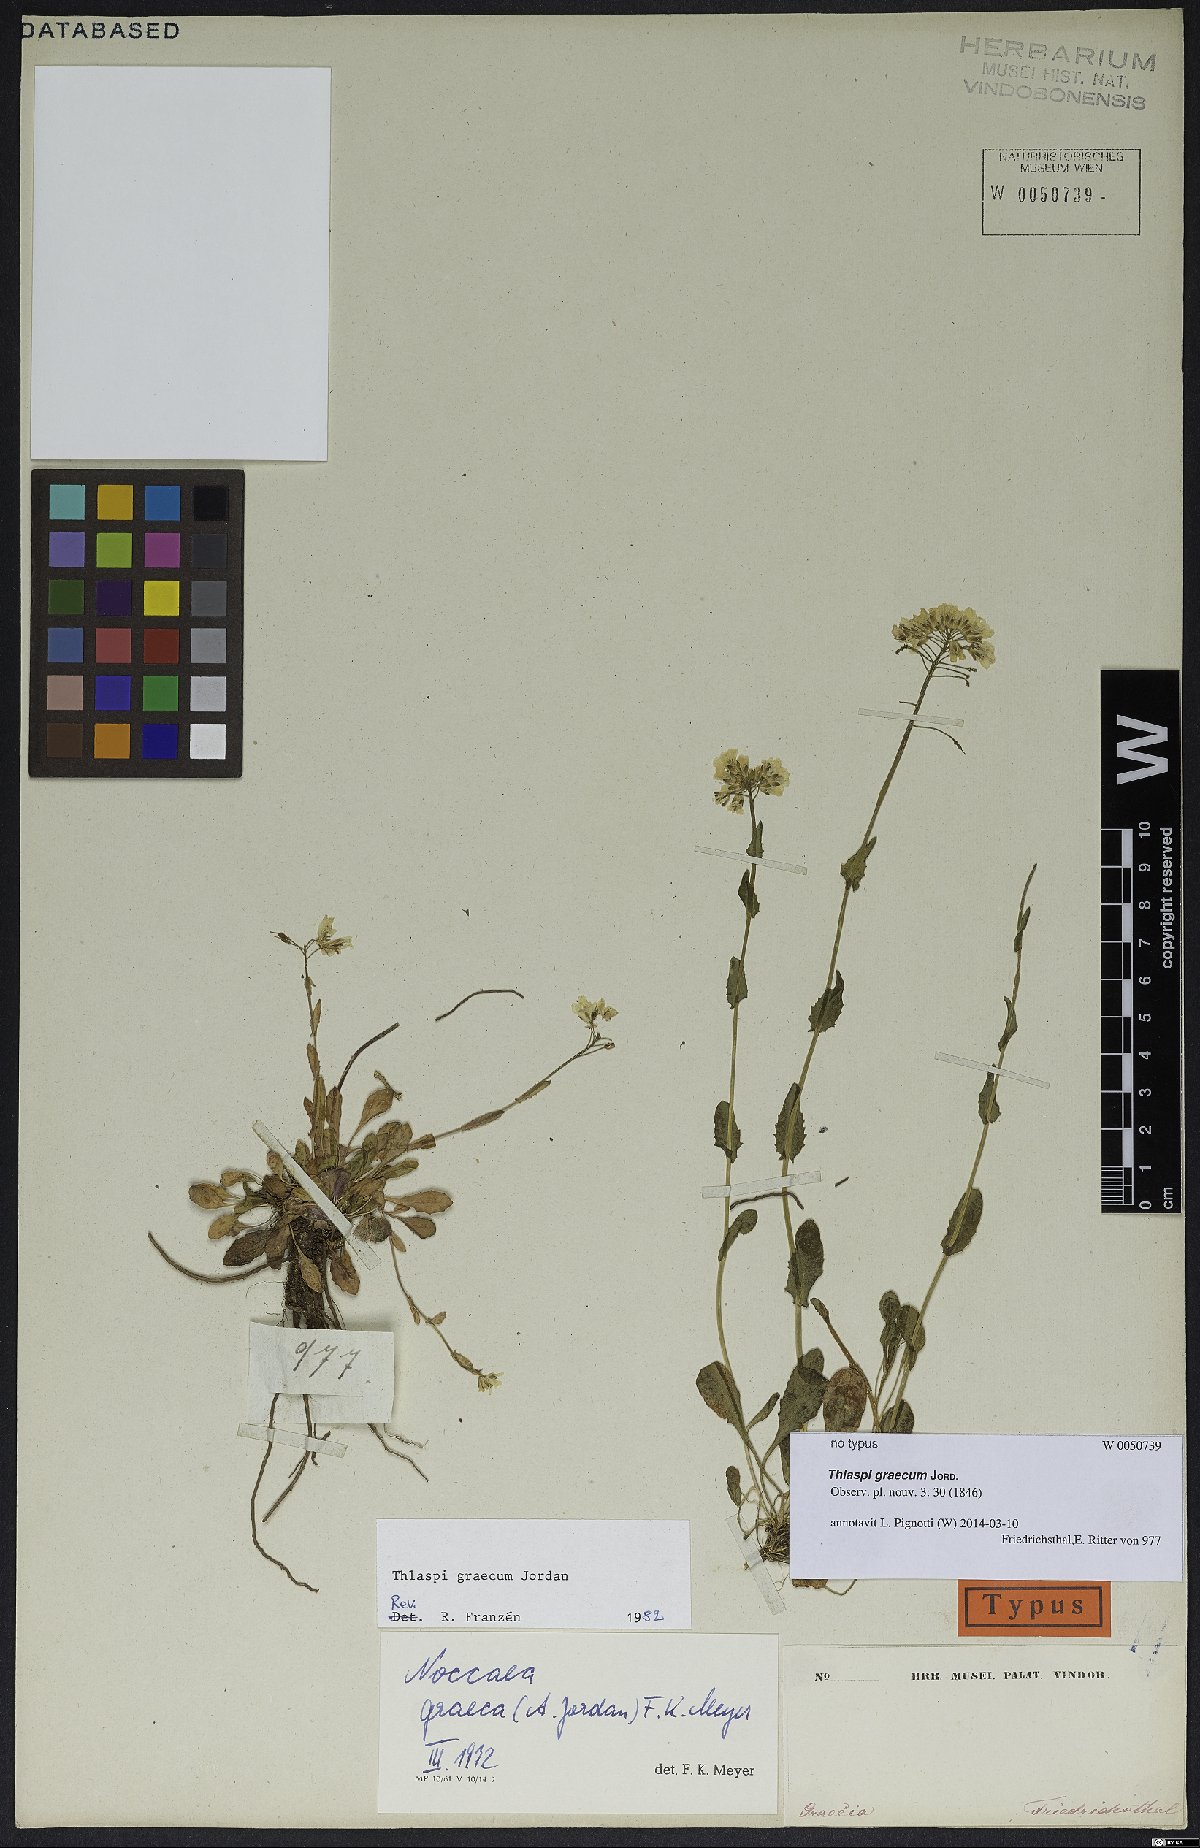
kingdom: Plantae
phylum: Tracheophyta
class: Magnoliopsida
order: Brassicales
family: Brassicaceae
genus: Noccaea
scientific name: Noccaea graeca
